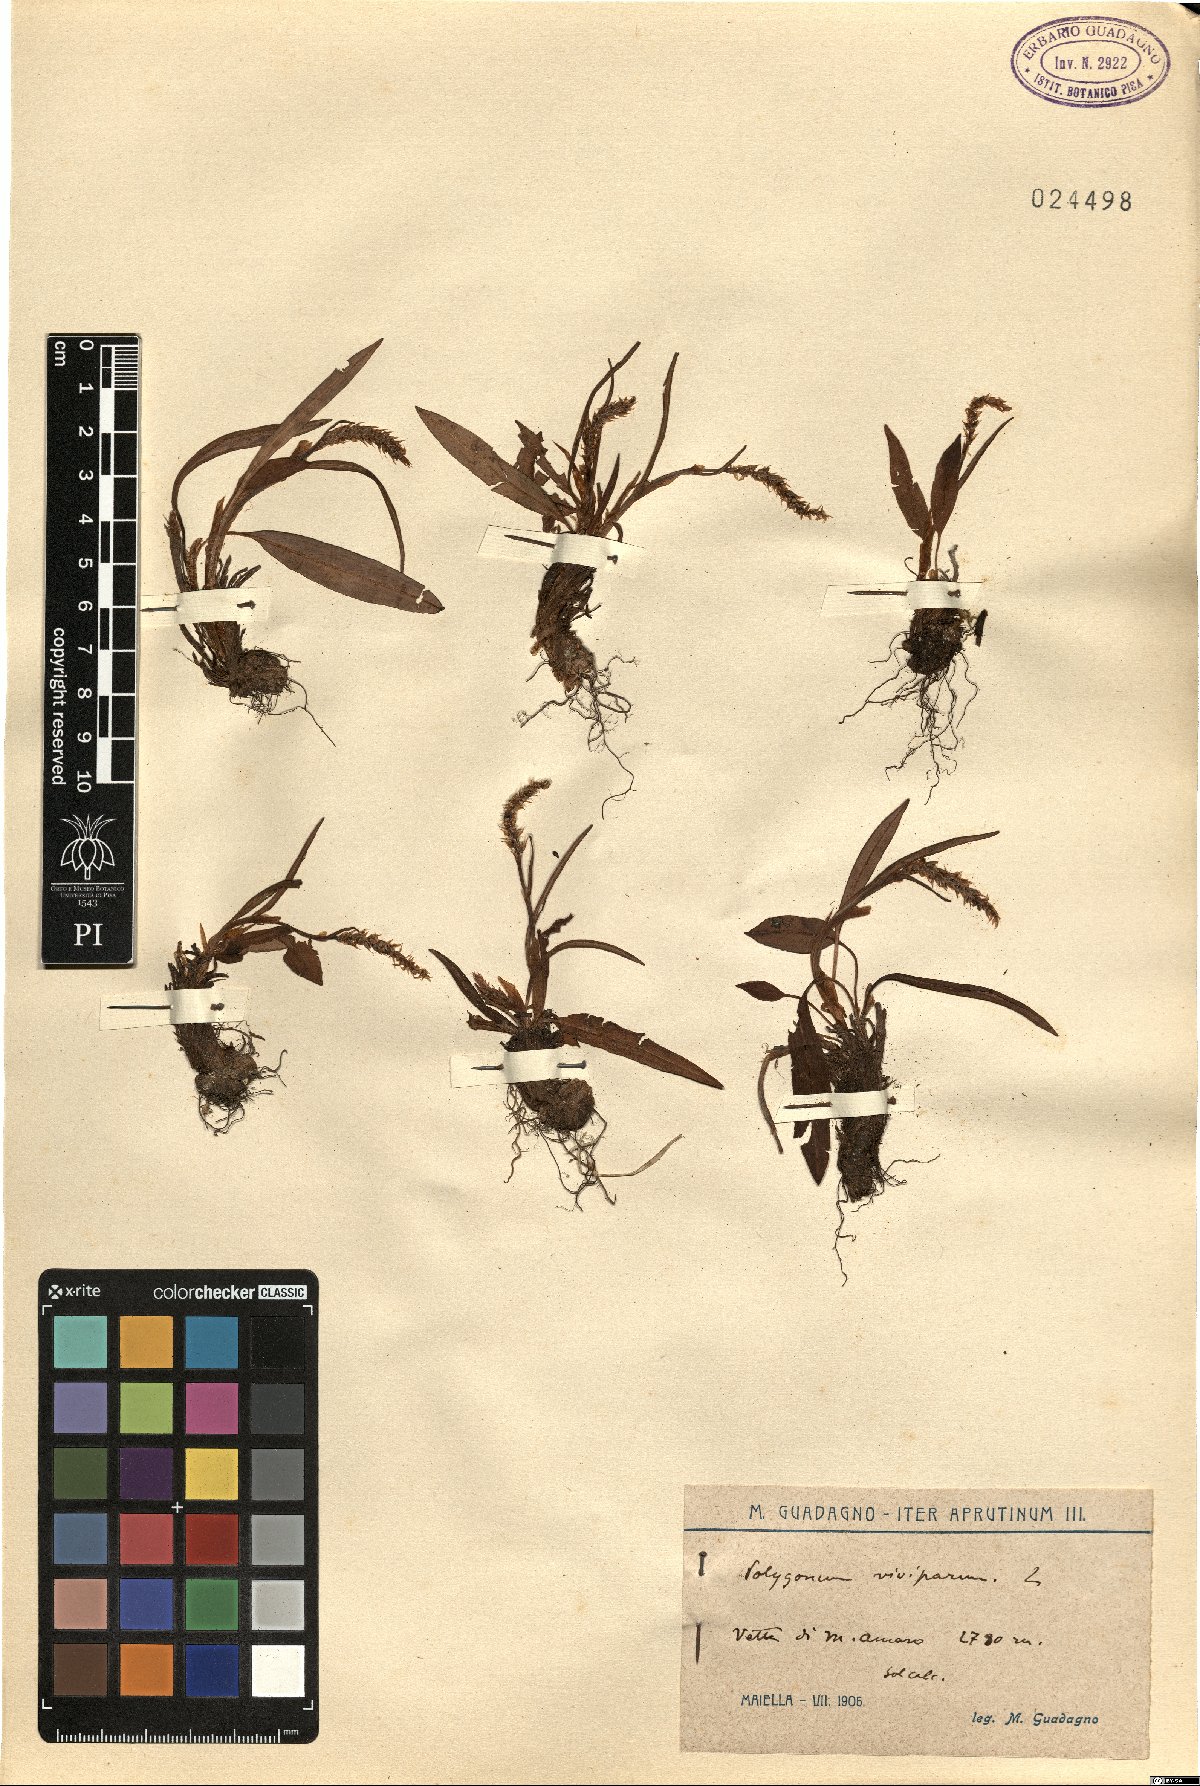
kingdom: Plantae
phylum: Tracheophyta
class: Magnoliopsida
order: Caryophyllales
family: Polygonaceae
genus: Bistorta
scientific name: Bistorta vivipara
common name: Alpine bistort
